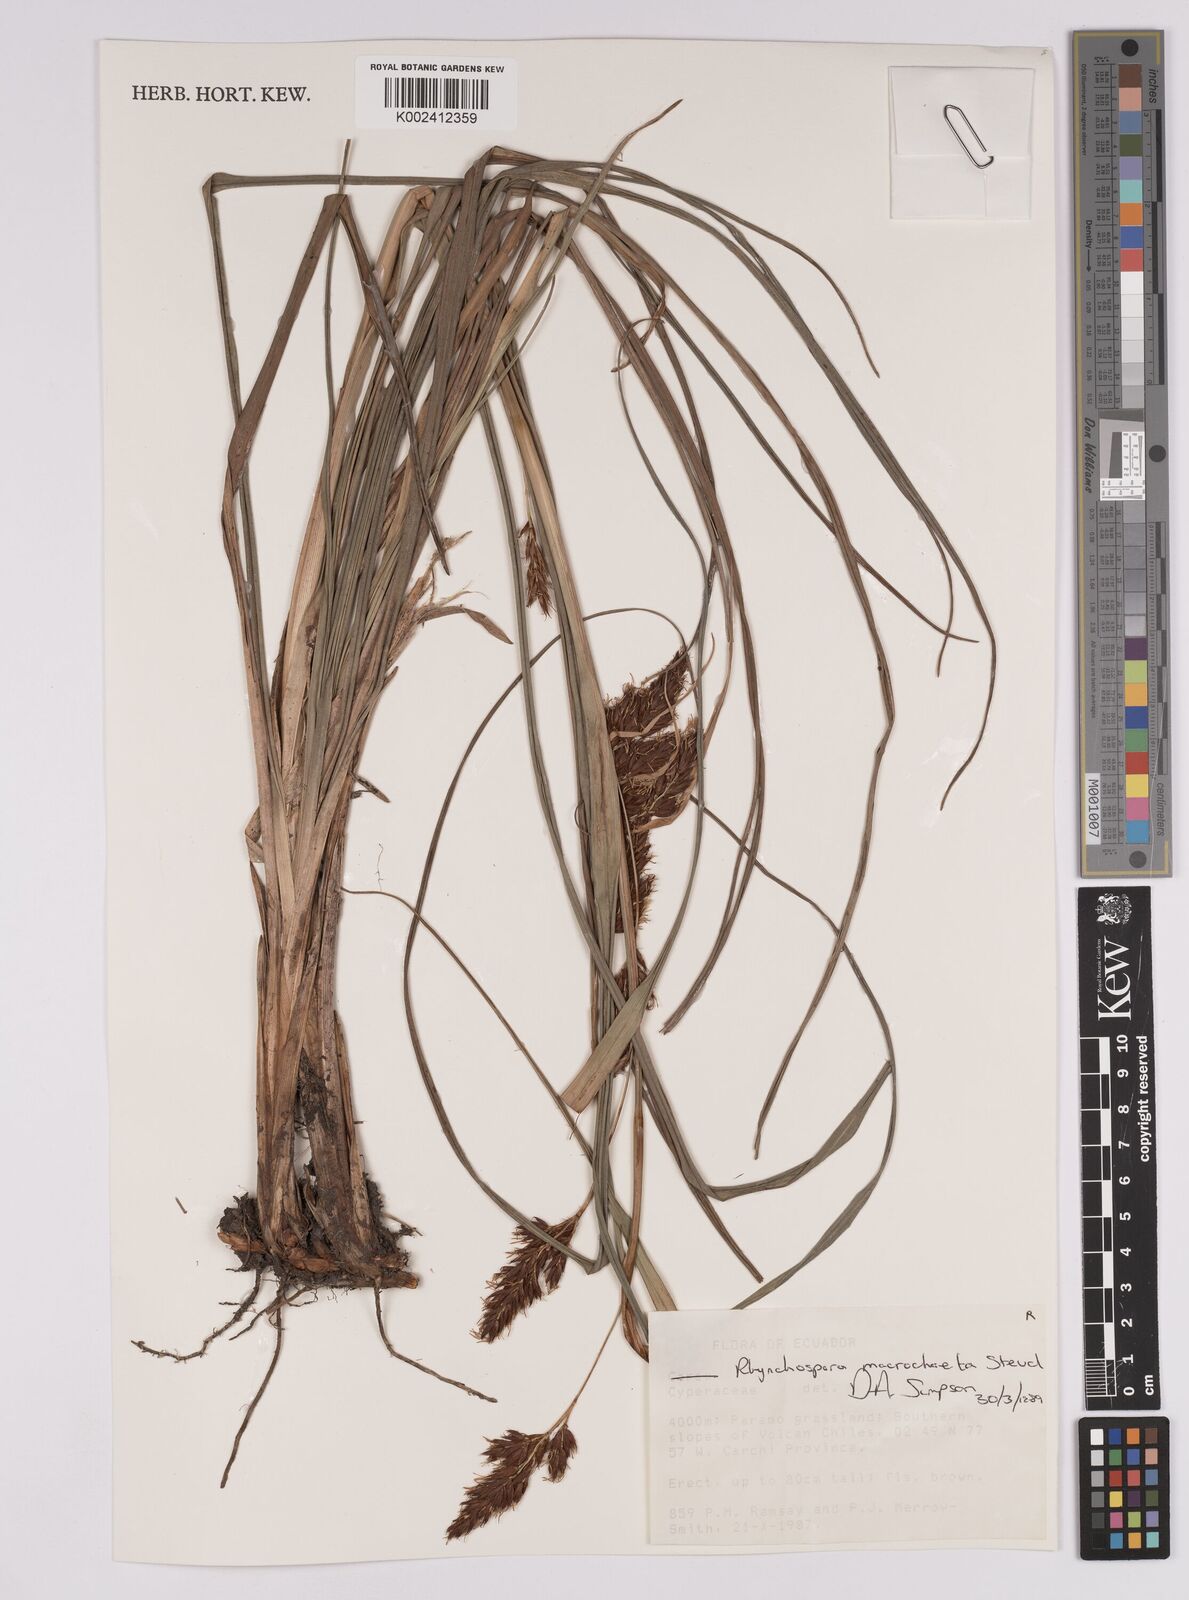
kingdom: Plantae
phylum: Tracheophyta
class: Liliopsida
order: Poales
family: Cyperaceae
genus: Rhynchospora
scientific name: Rhynchospora macrochaeta
